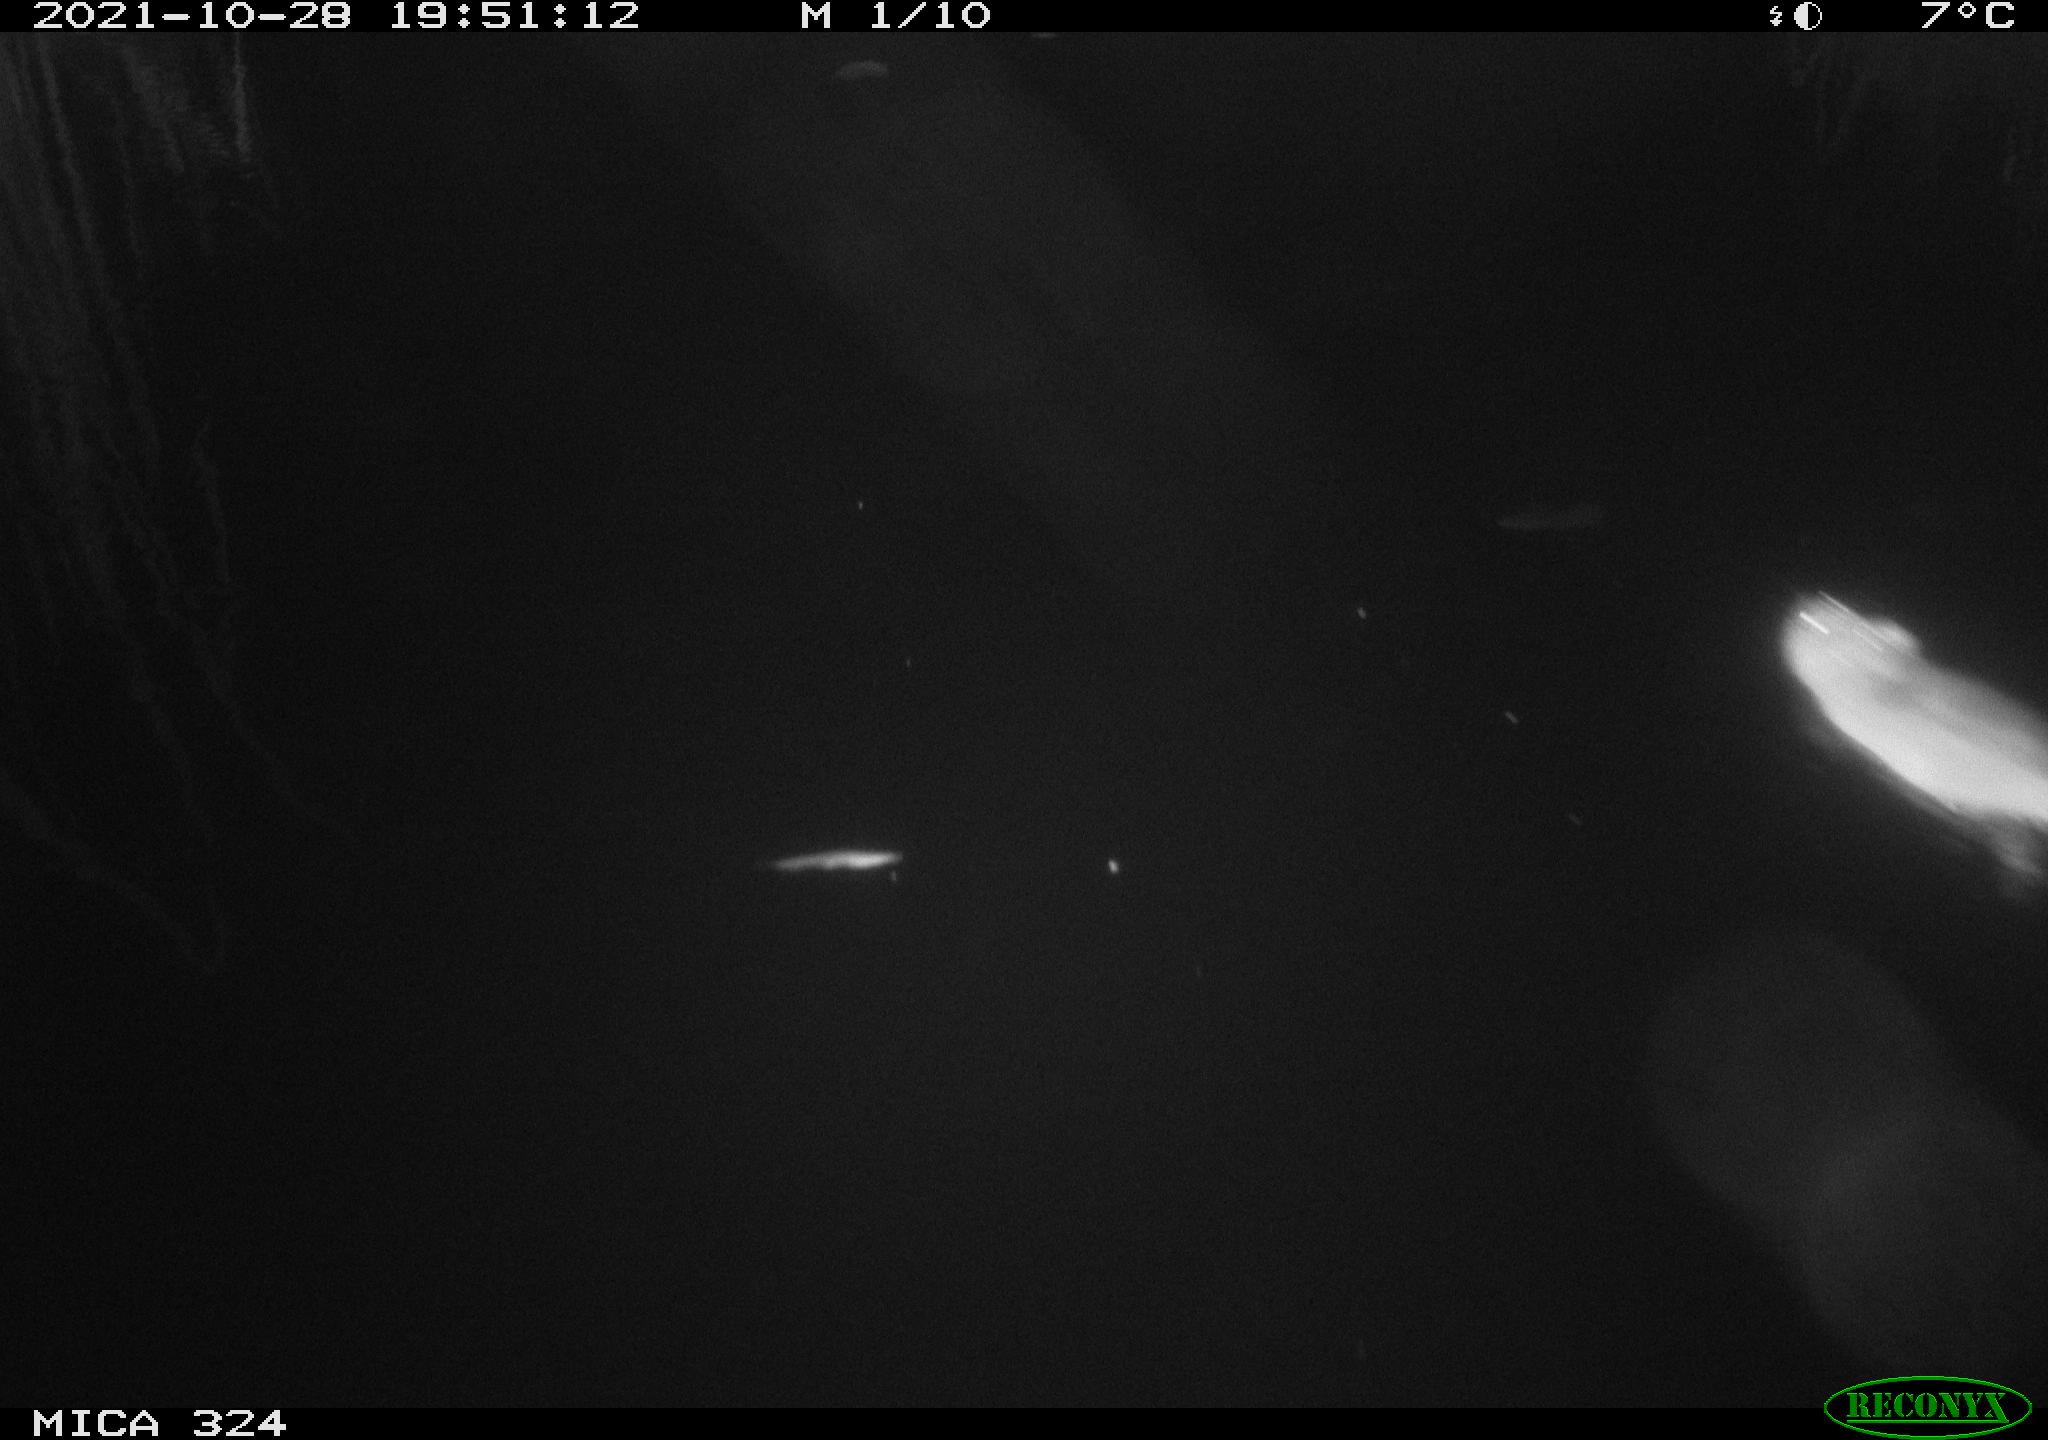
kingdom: Animalia
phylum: Chordata
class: Mammalia
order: Rodentia
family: Cricetidae
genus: Ondatra
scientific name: Ondatra zibethicus
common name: Muskrat
